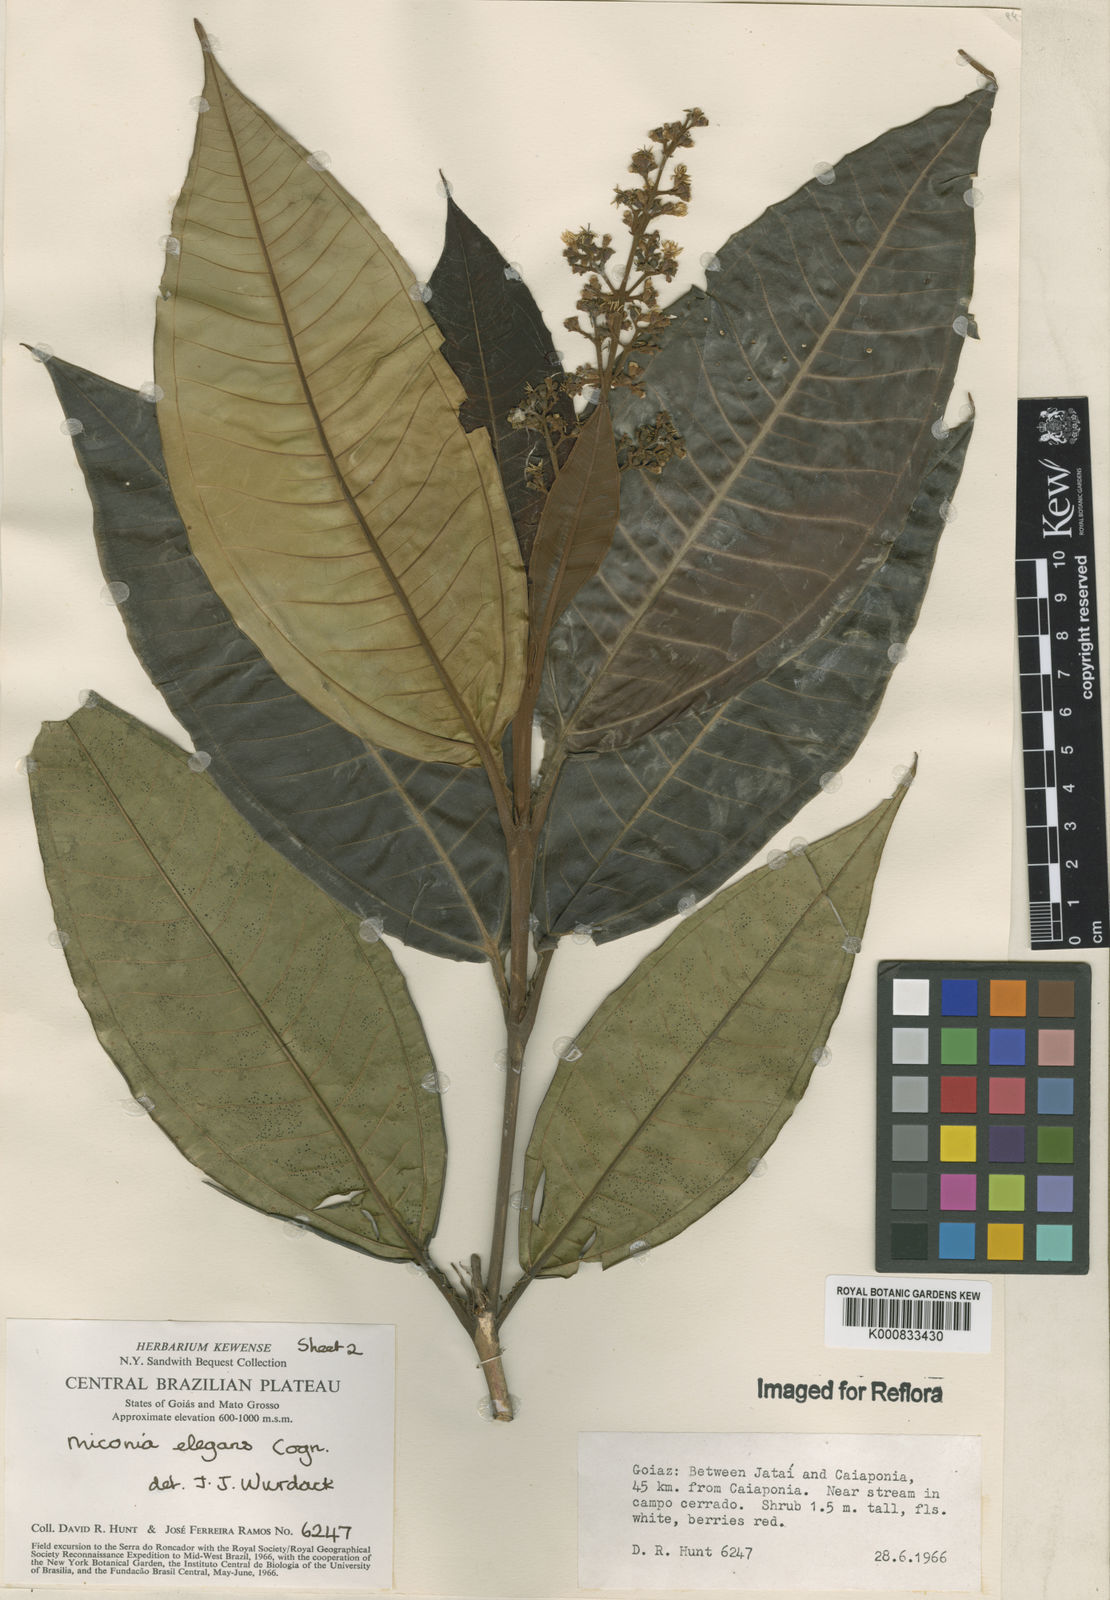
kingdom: Plantae
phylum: Tracheophyta
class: Magnoliopsida
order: Myrtales
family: Melastomataceae
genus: Miconia
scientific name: Miconia elegans
